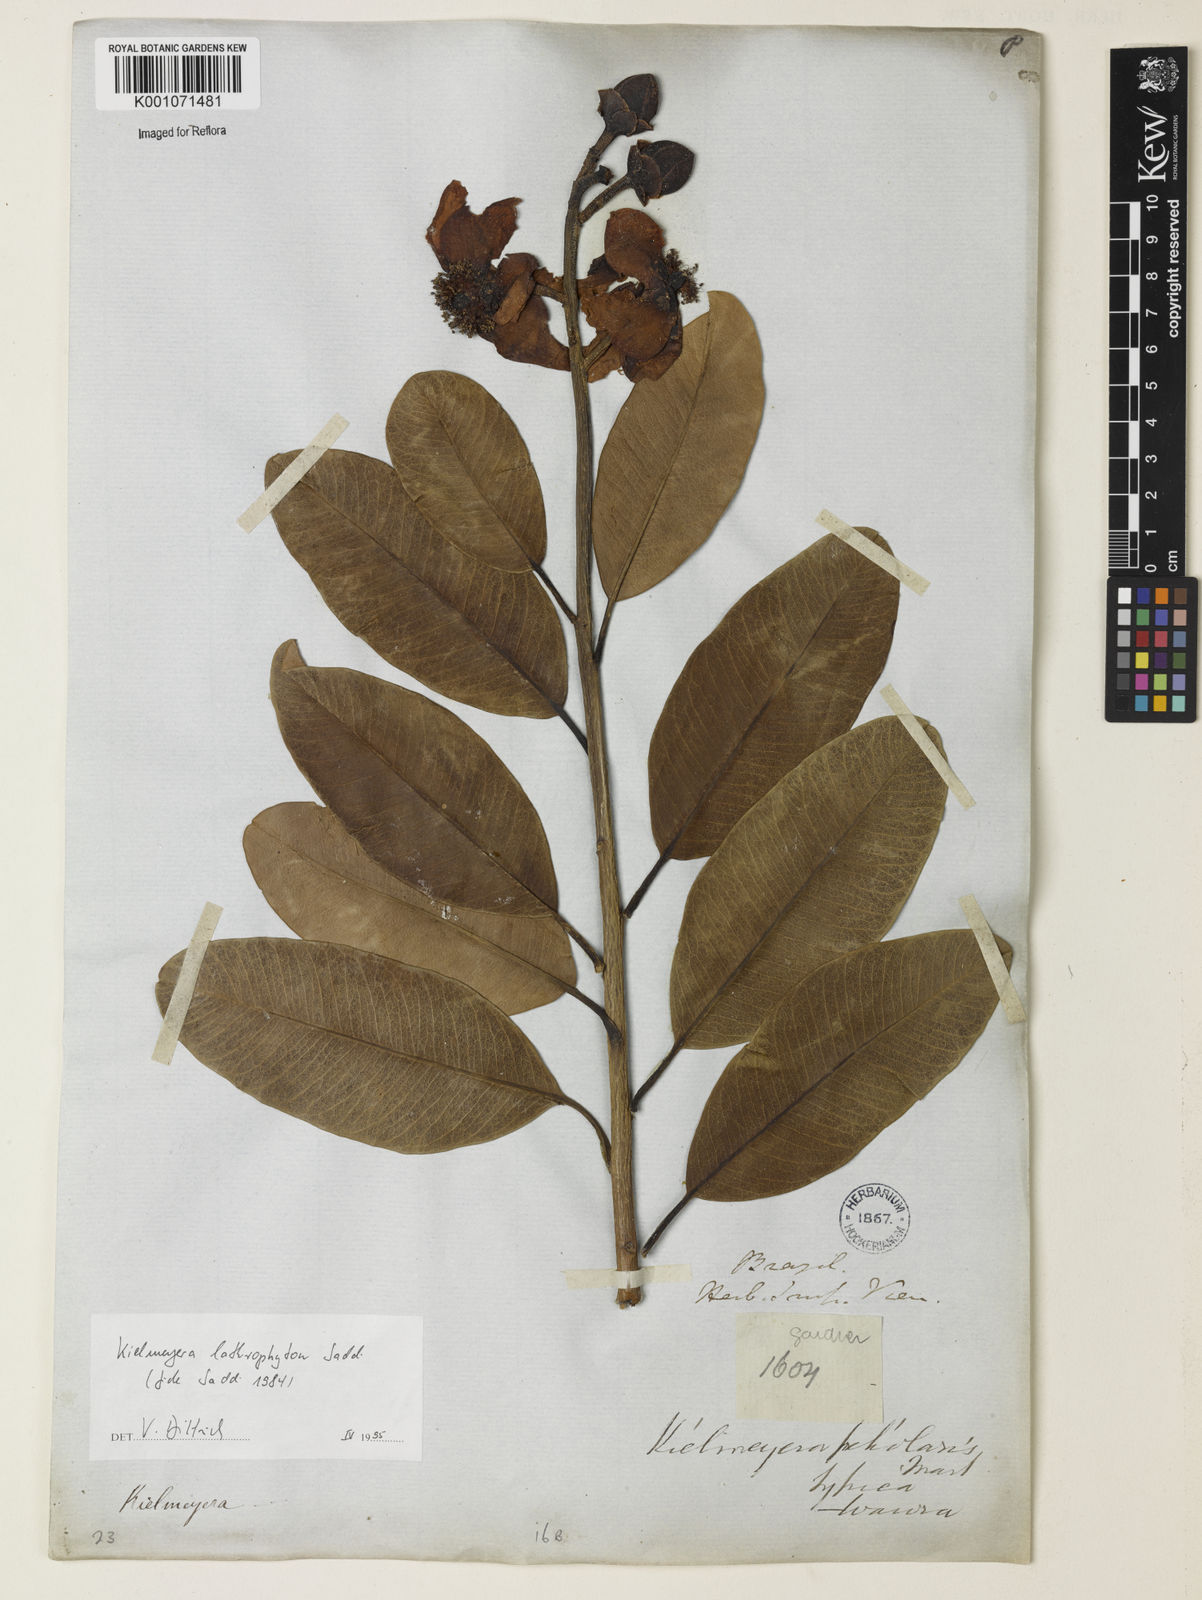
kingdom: Plantae
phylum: Tracheophyta
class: Magnoliopsida
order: Malpighiales
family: Calophyllaceae
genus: Kielmeyera
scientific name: Kielmeyera lathrophyton
